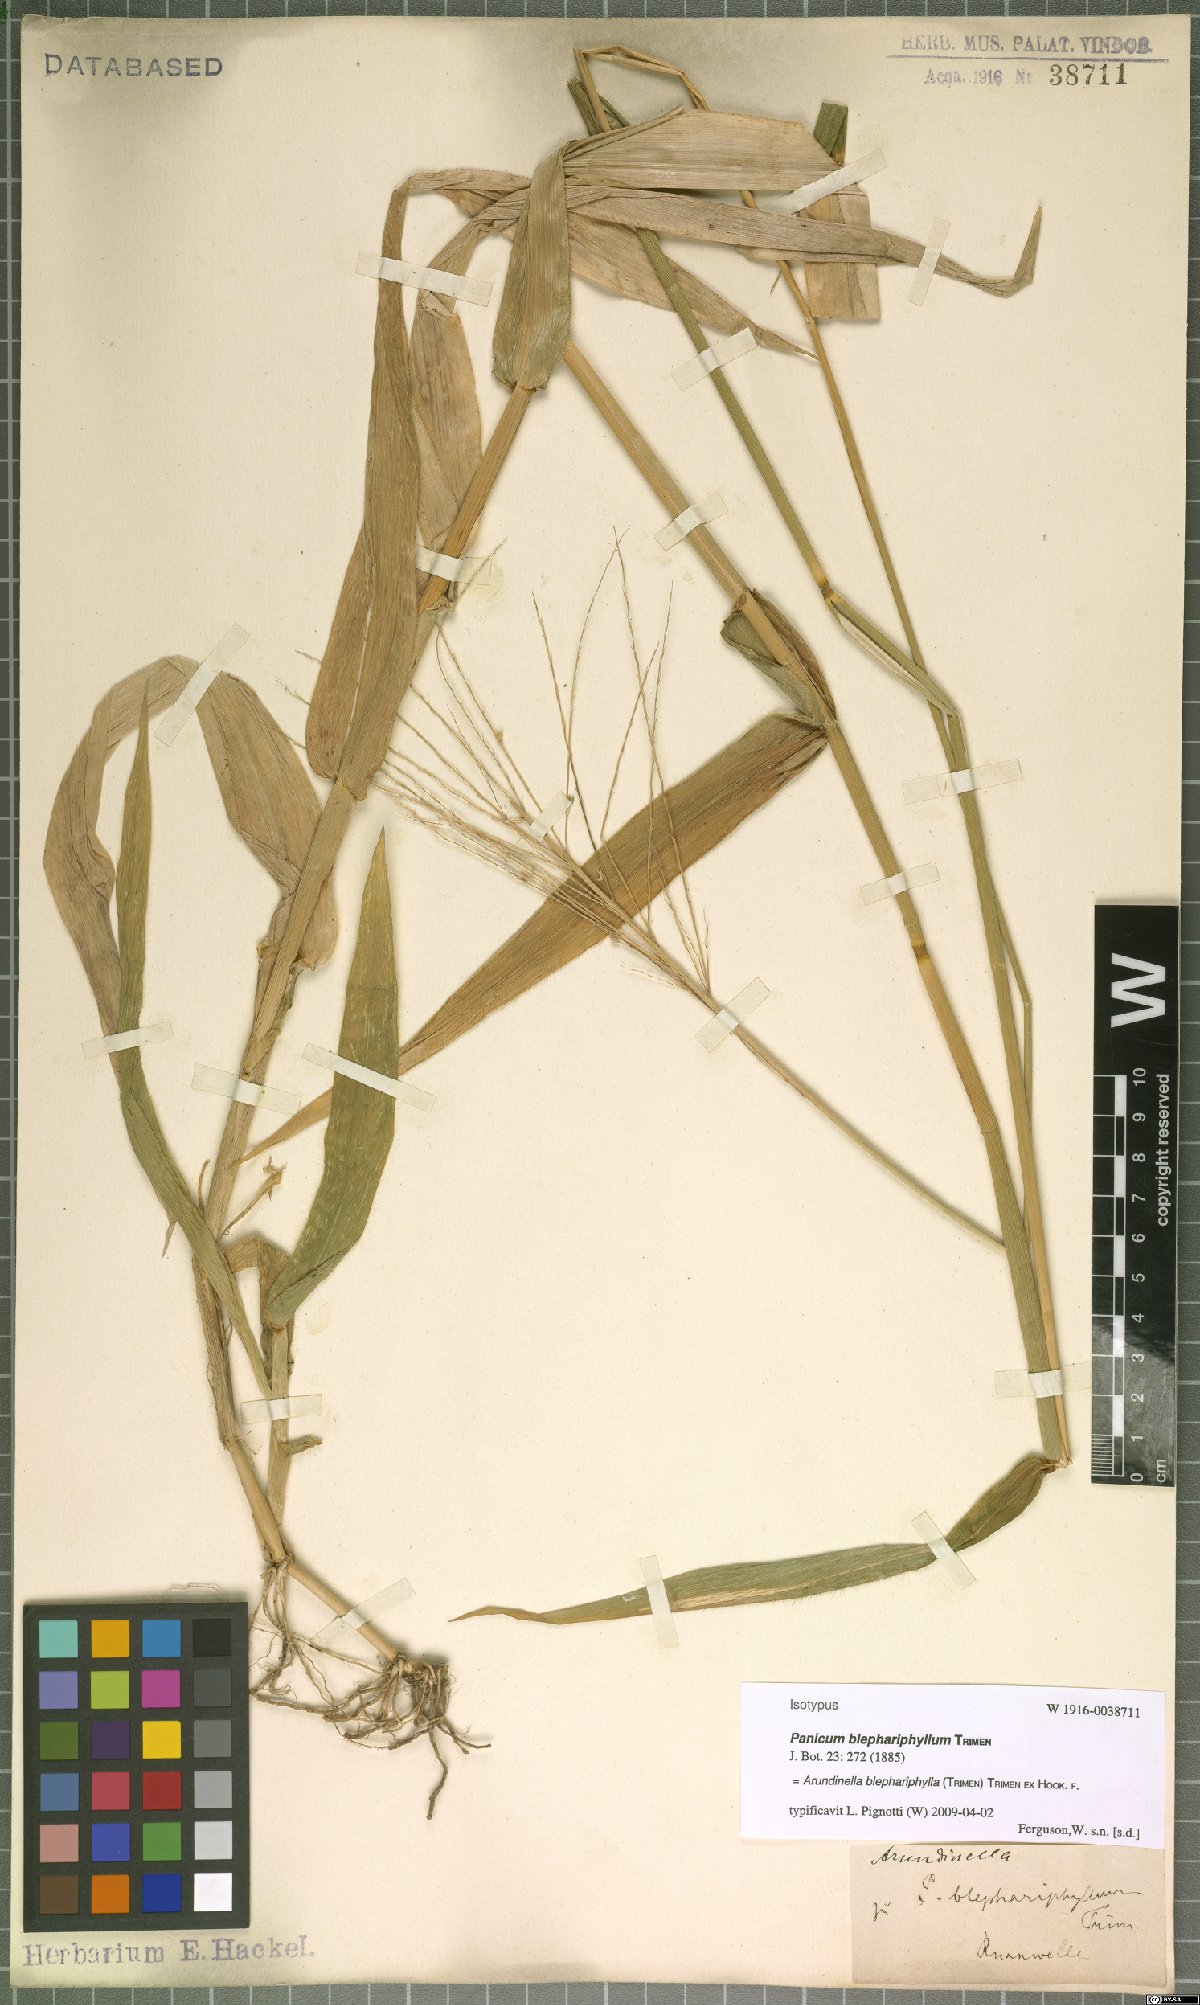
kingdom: Plantae
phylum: Tracheophyta
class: Liliopsida
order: Poales
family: Poaceae
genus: Arundinella
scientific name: Arundinella blephariphylla
